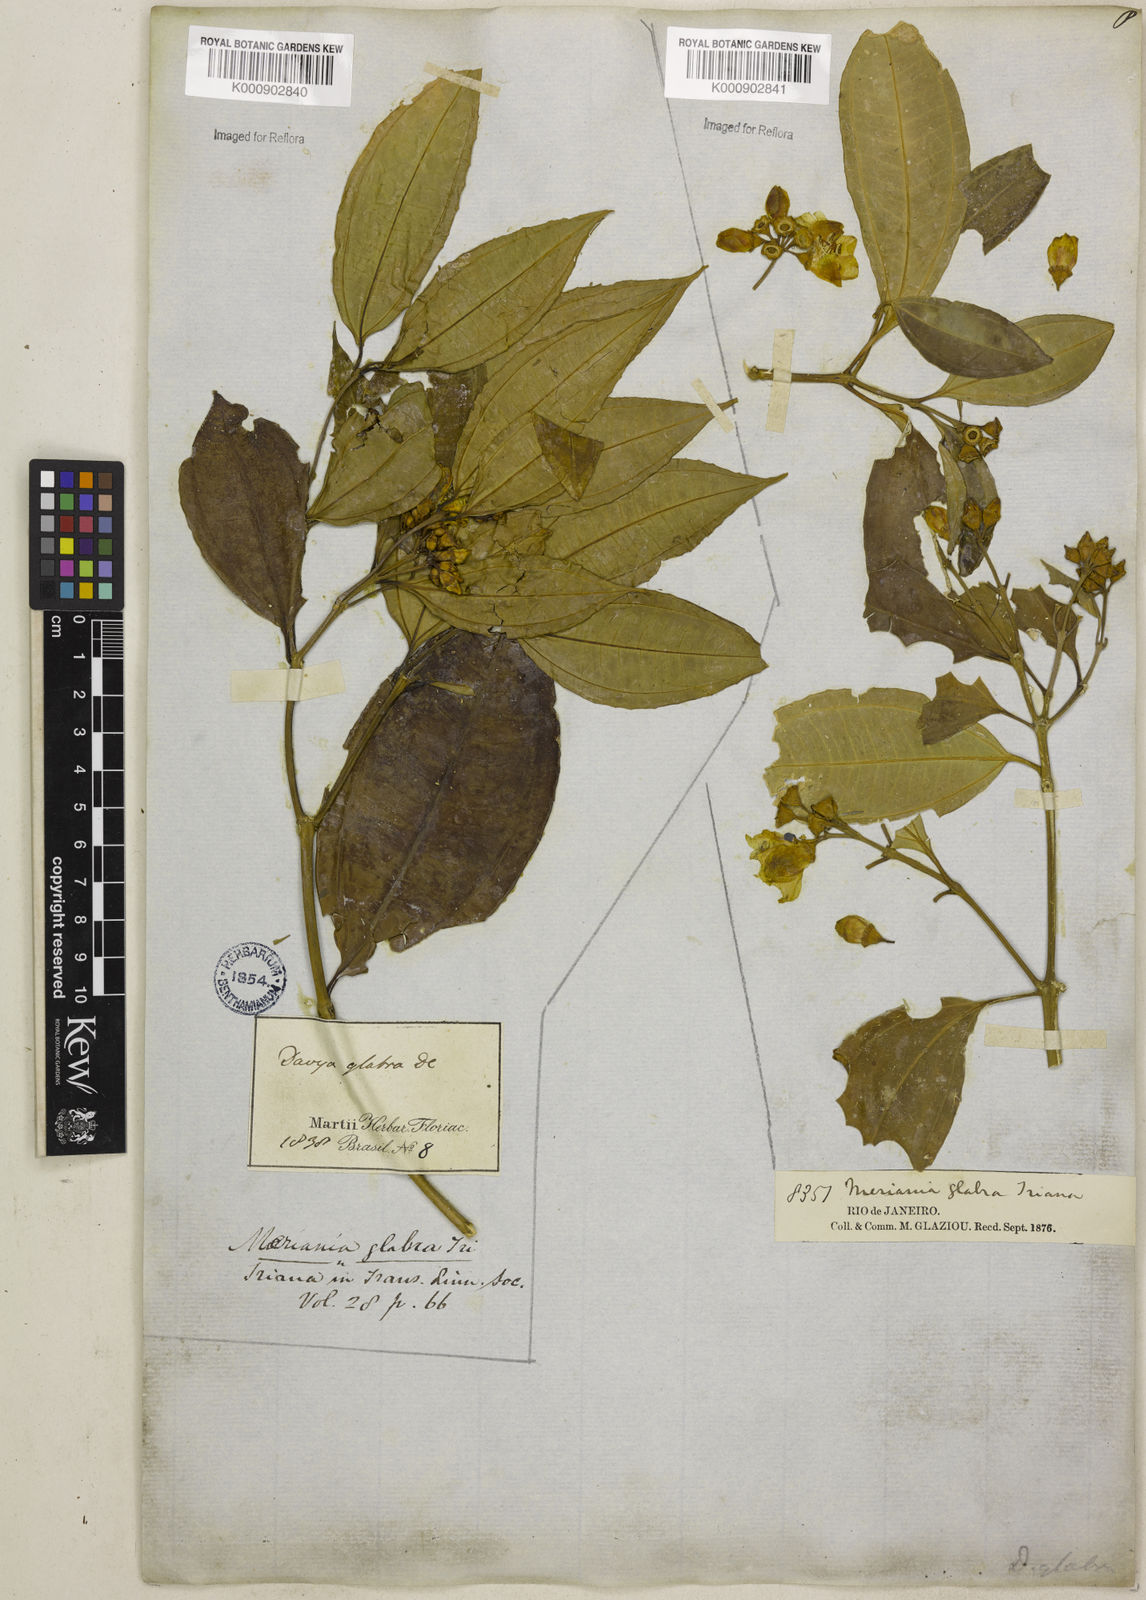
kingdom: Plantae
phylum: Tracheophyta
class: Magnoliopsida
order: Myrtales
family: Melastomataceae
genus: Meriania
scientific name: Meriania glabra
